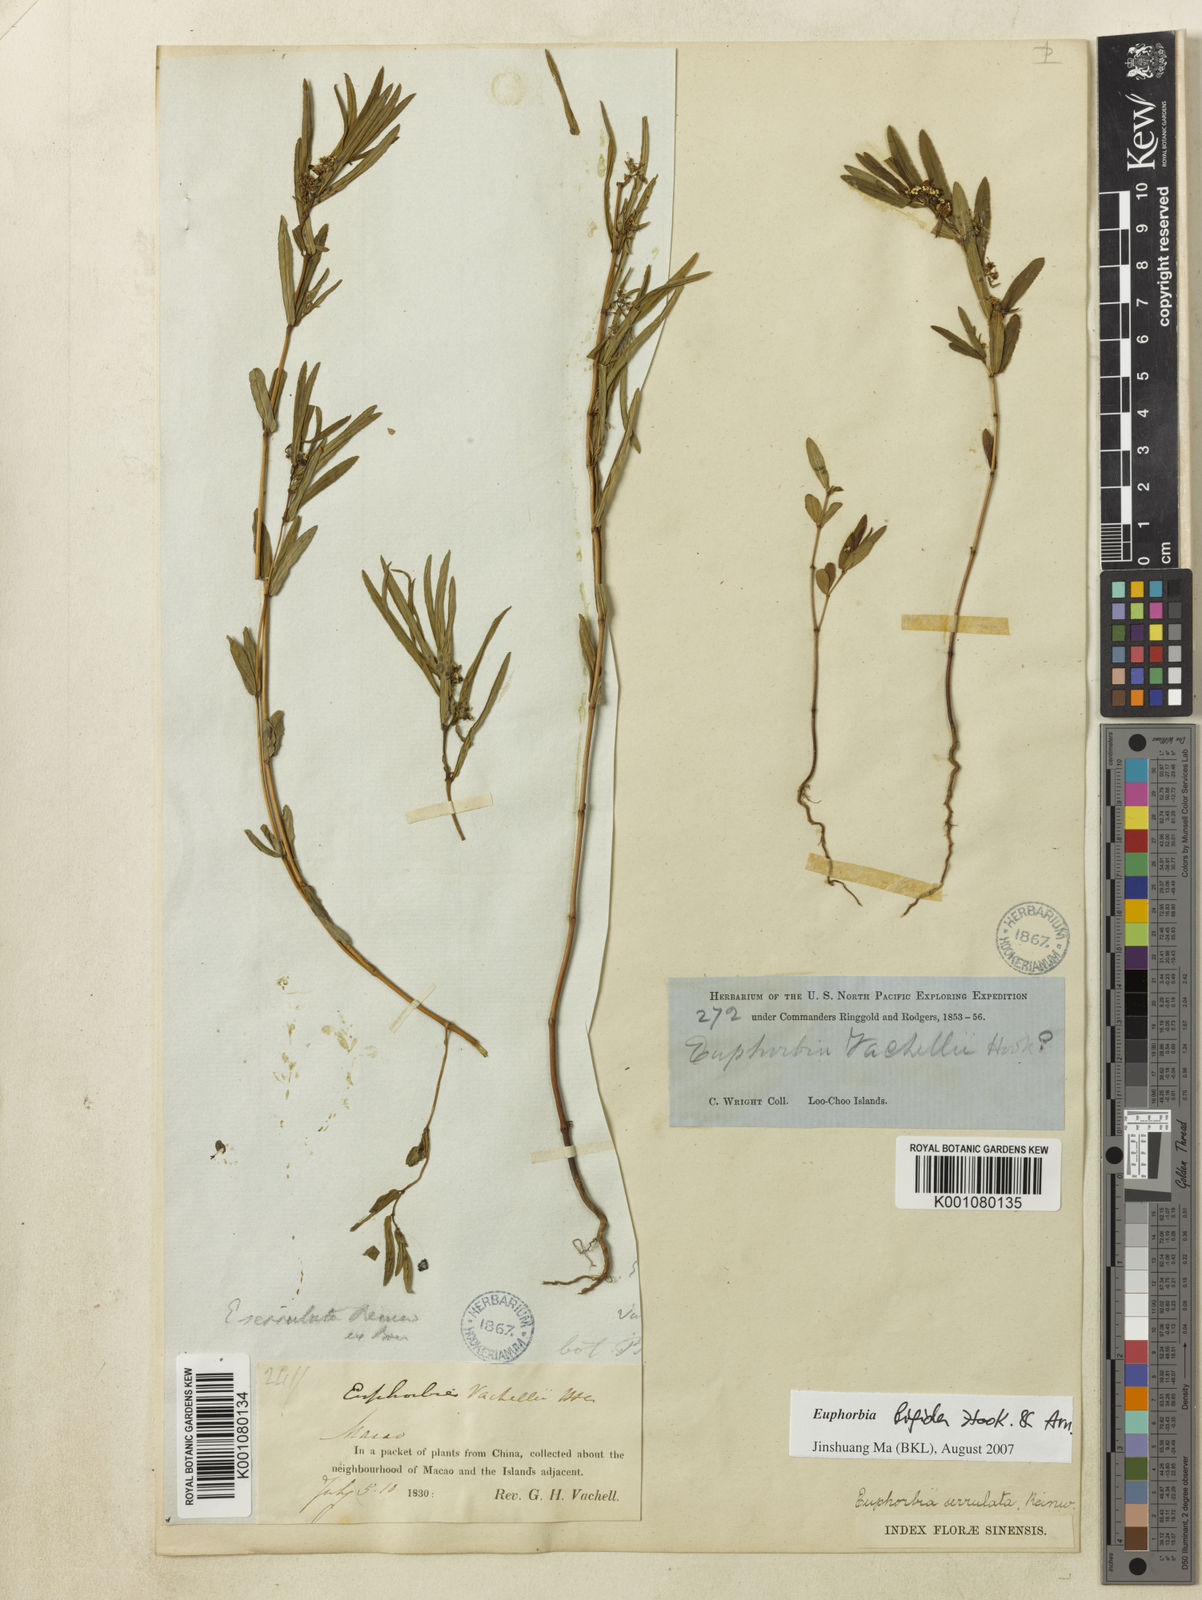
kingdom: Plantae
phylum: Tracheophyta
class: Magnoliopsida
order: Malpighiales
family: Euphorbiaceae
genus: Euphorbia
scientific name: Euphorbia bifida
